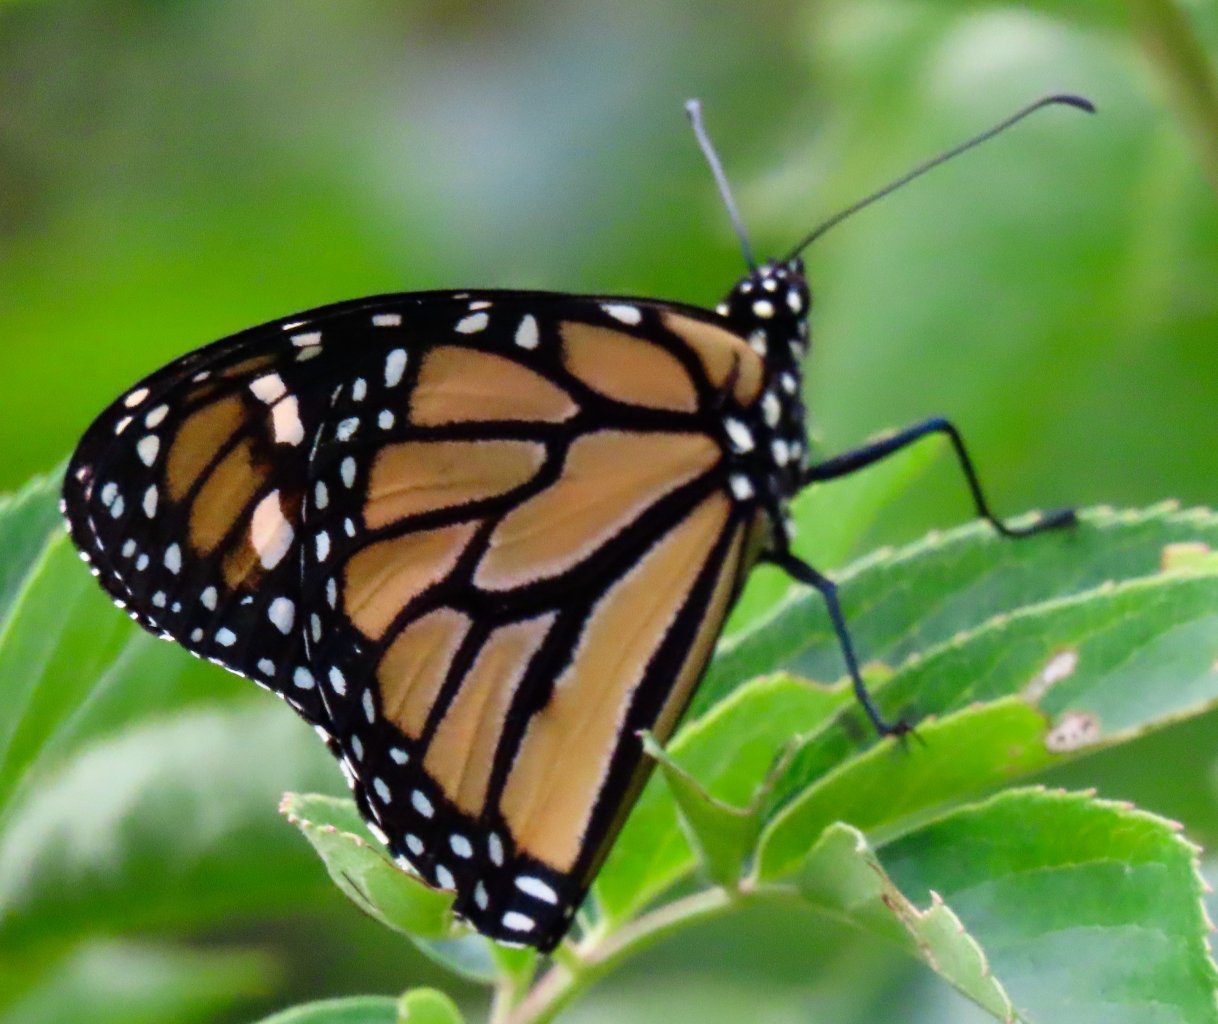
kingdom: Animalia
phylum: Arthropoda
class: Insecta
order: Lepidoptera
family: Nymphalidae
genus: Danaus
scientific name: Danaus plexippus
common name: Monarch
